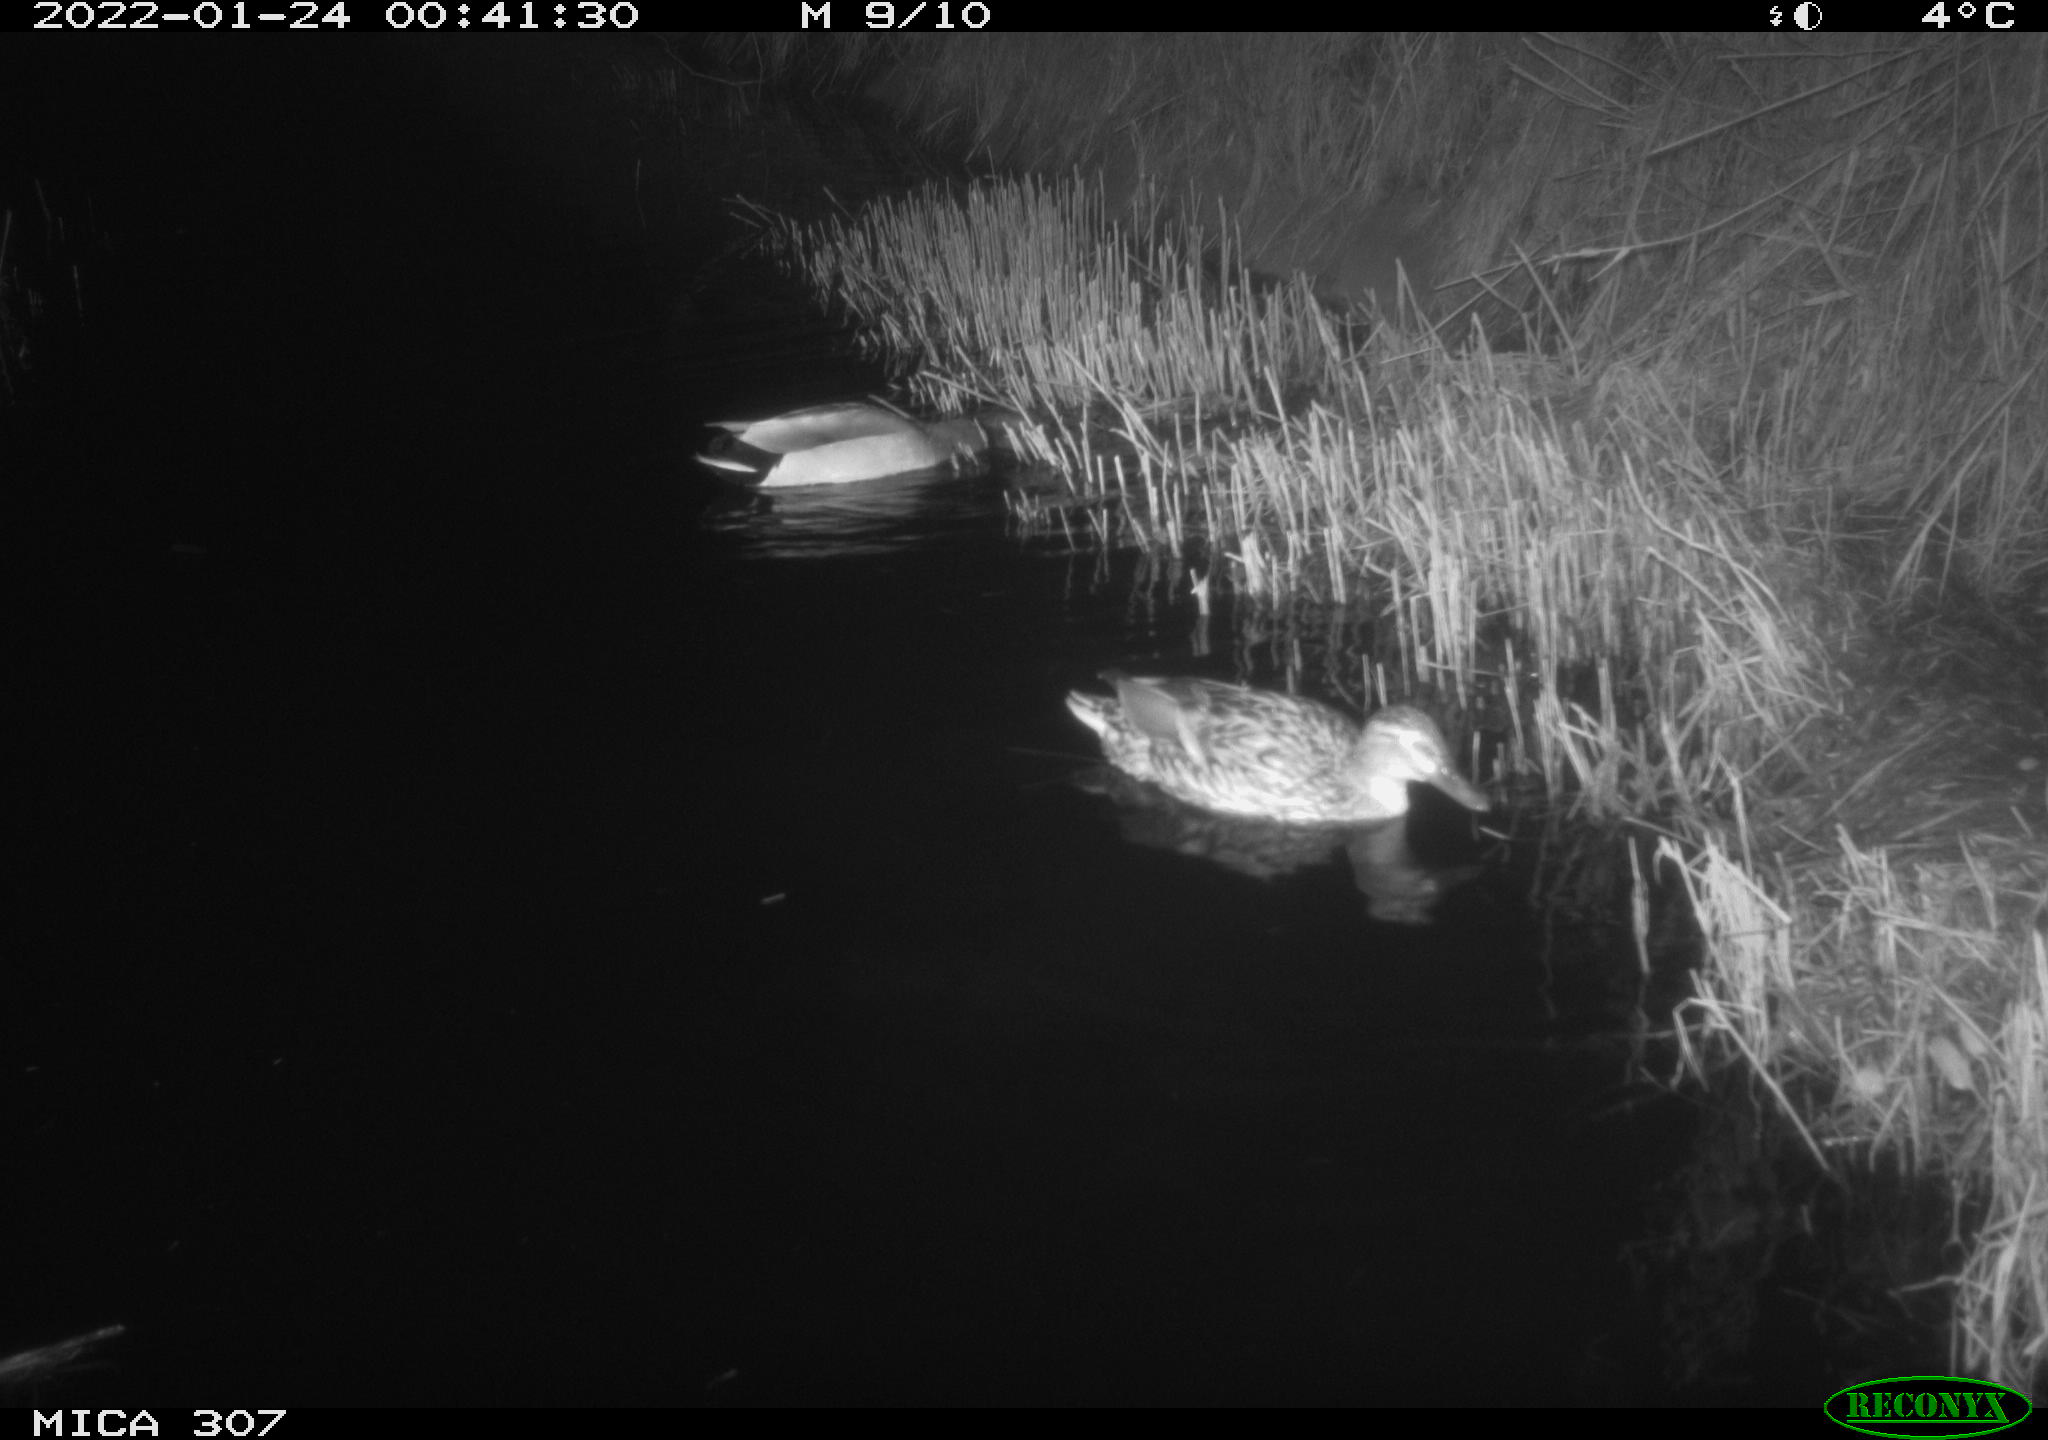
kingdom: Animalia
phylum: Chordata
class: Aves
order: Anseriformes
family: Anatidae
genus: Anas
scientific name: Anas
